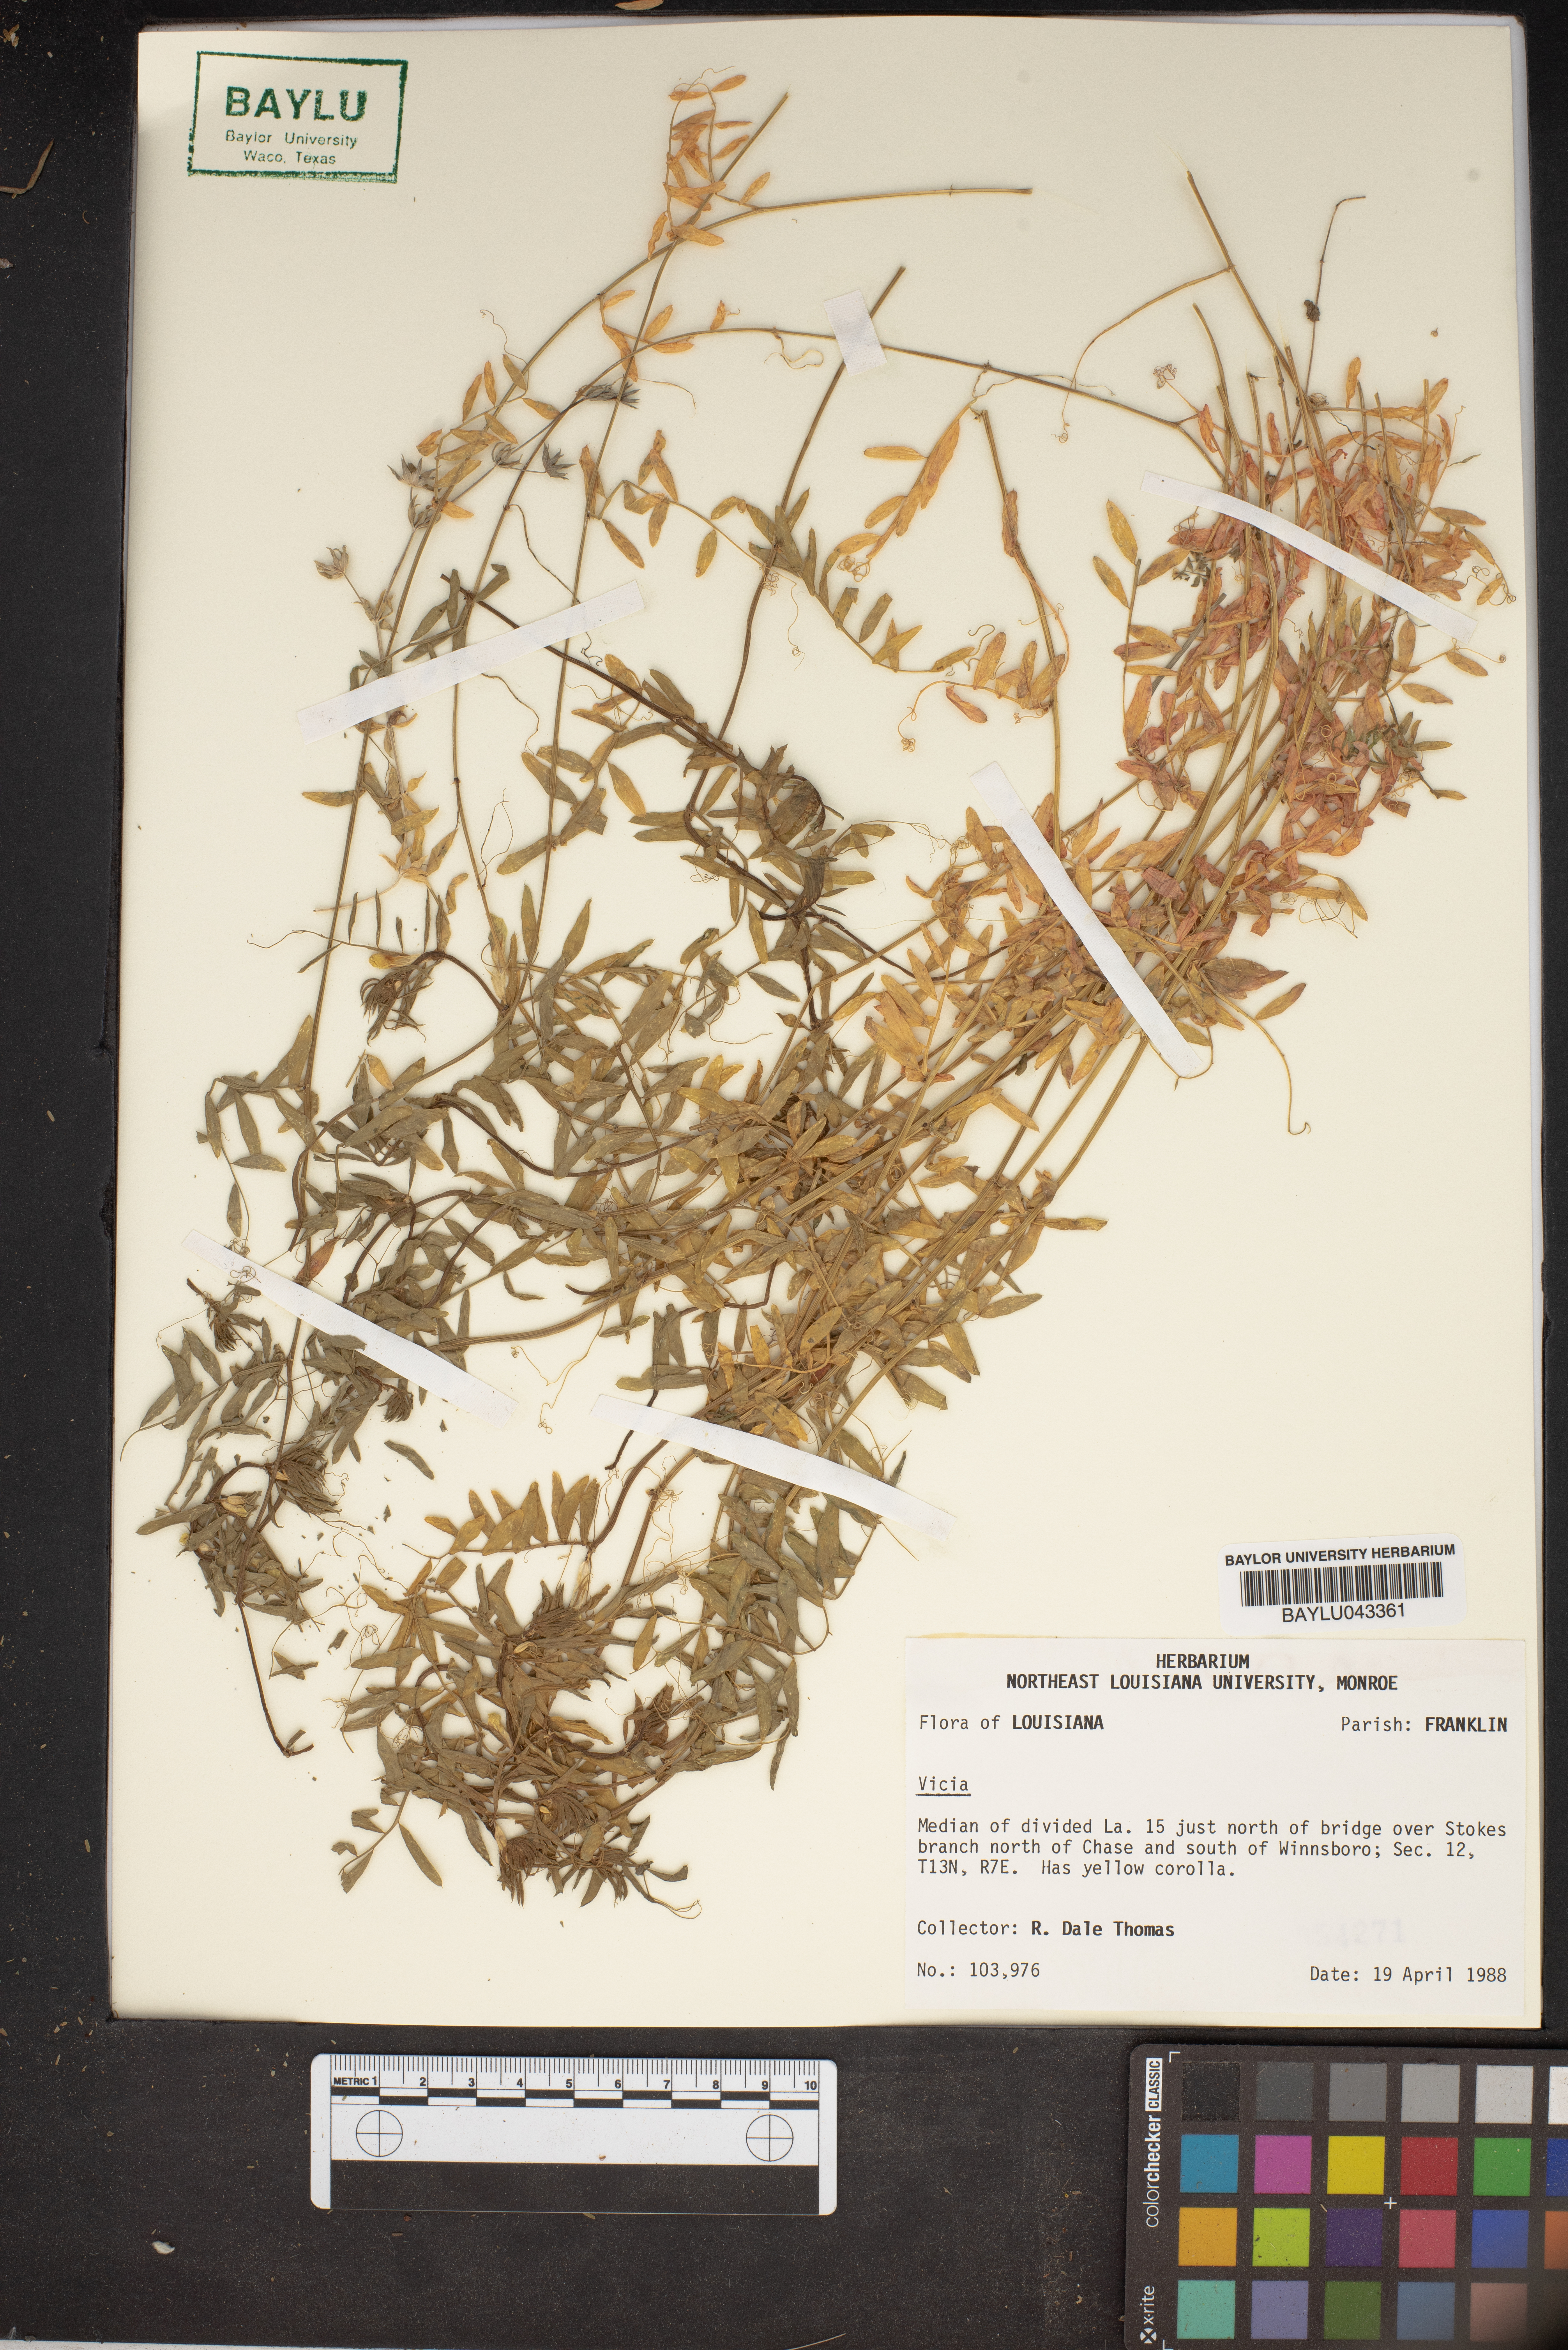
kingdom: Plantae
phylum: Tracheophyta
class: Magnoliopsida
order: Fabales
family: Fabaceae
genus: Vicia
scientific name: Vicia
